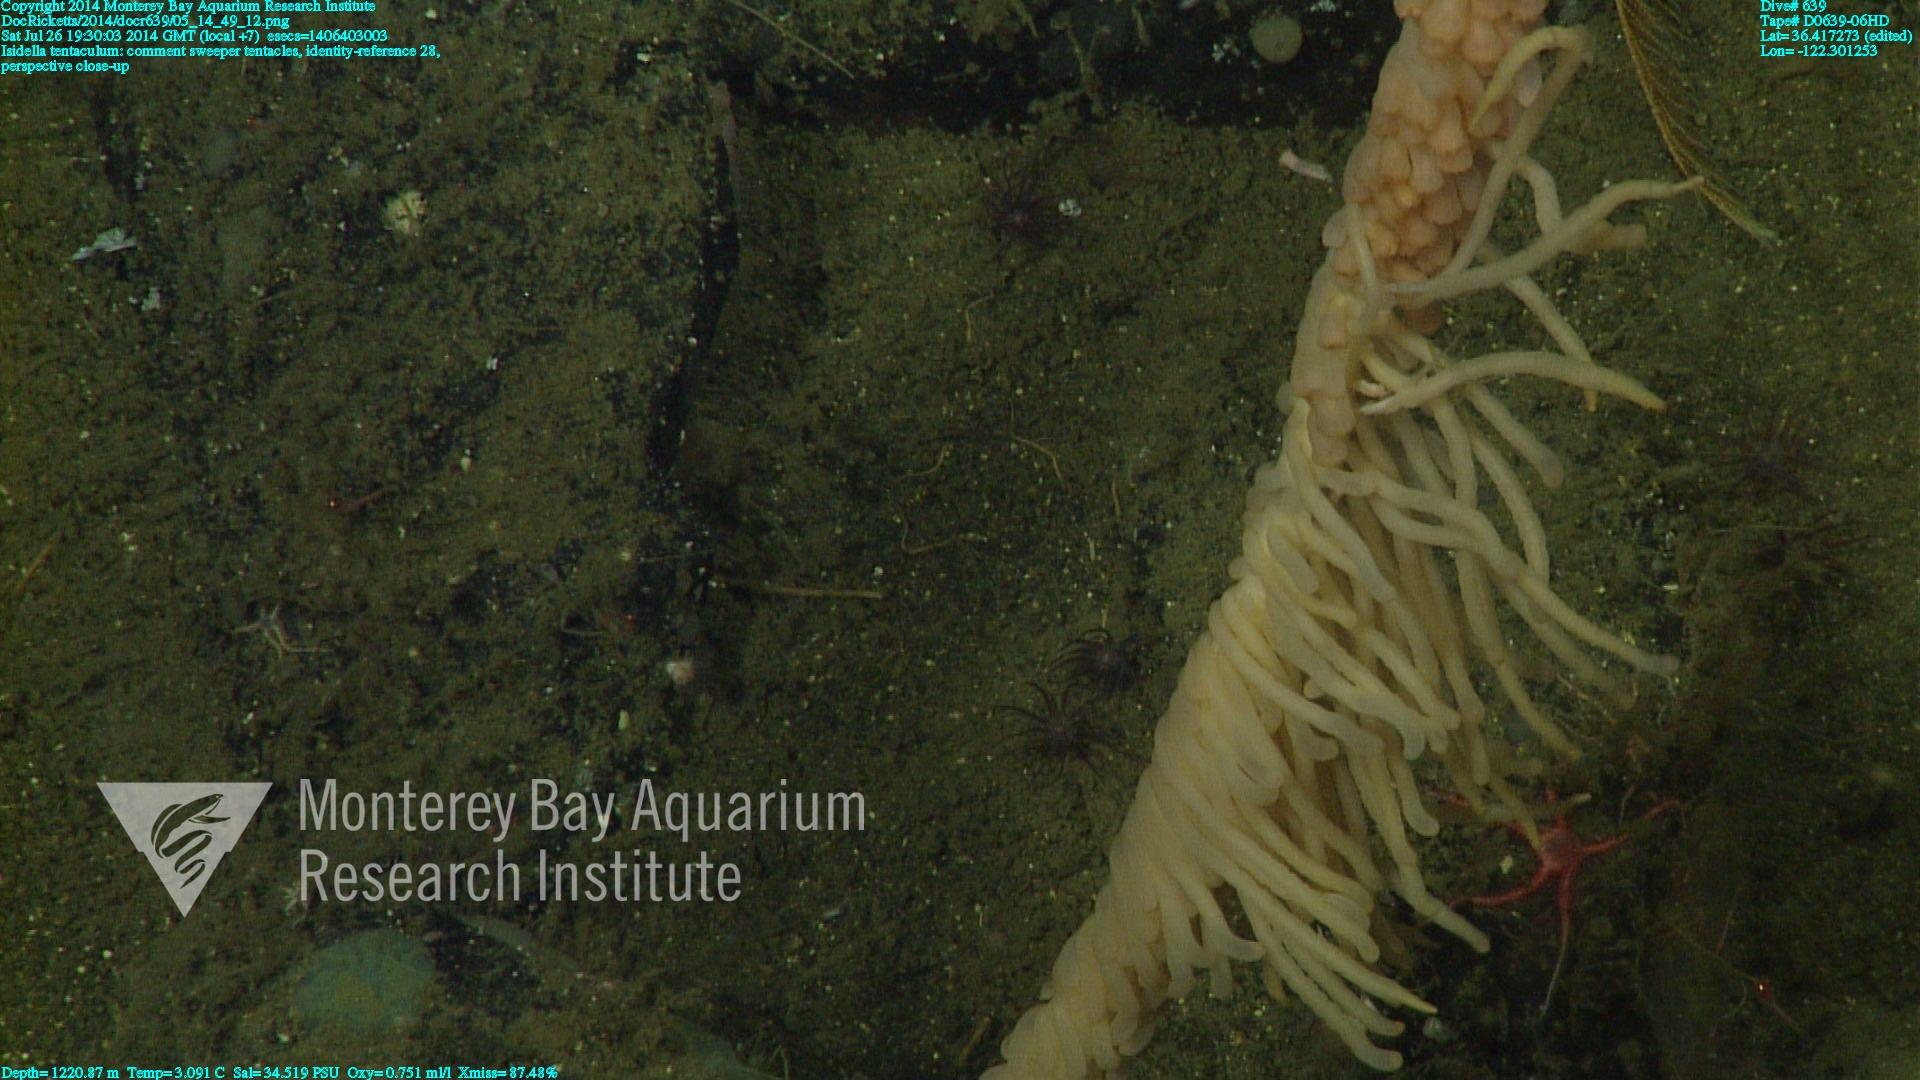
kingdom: Animalia
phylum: Cnidaria
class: Anthozoa
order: Scleralcyonacea
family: Keratoisididae
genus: Isidella
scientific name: Isidella tentaculum
